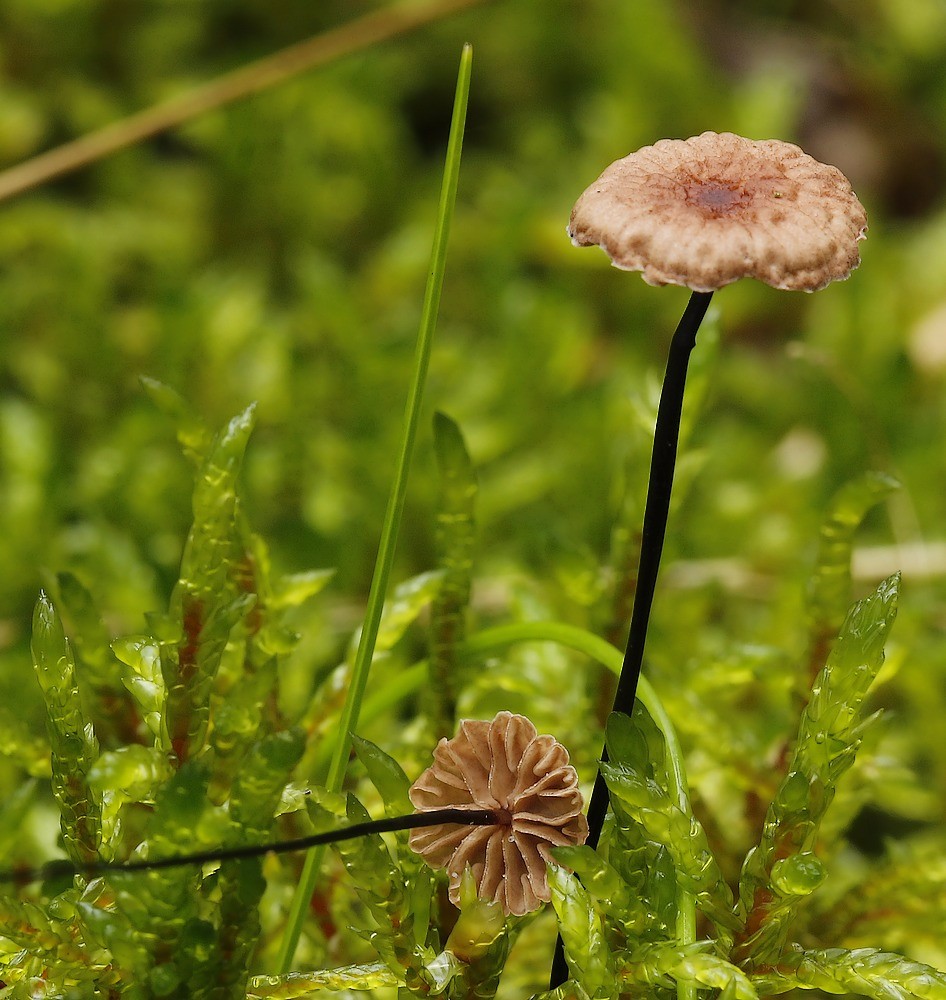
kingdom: Fungi
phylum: Basidiomycota
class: Agaricomycetes
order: Agaricales
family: Marasmiaceae
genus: Marasmius
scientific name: Marasmius rotula
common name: hjul-bruskhat
